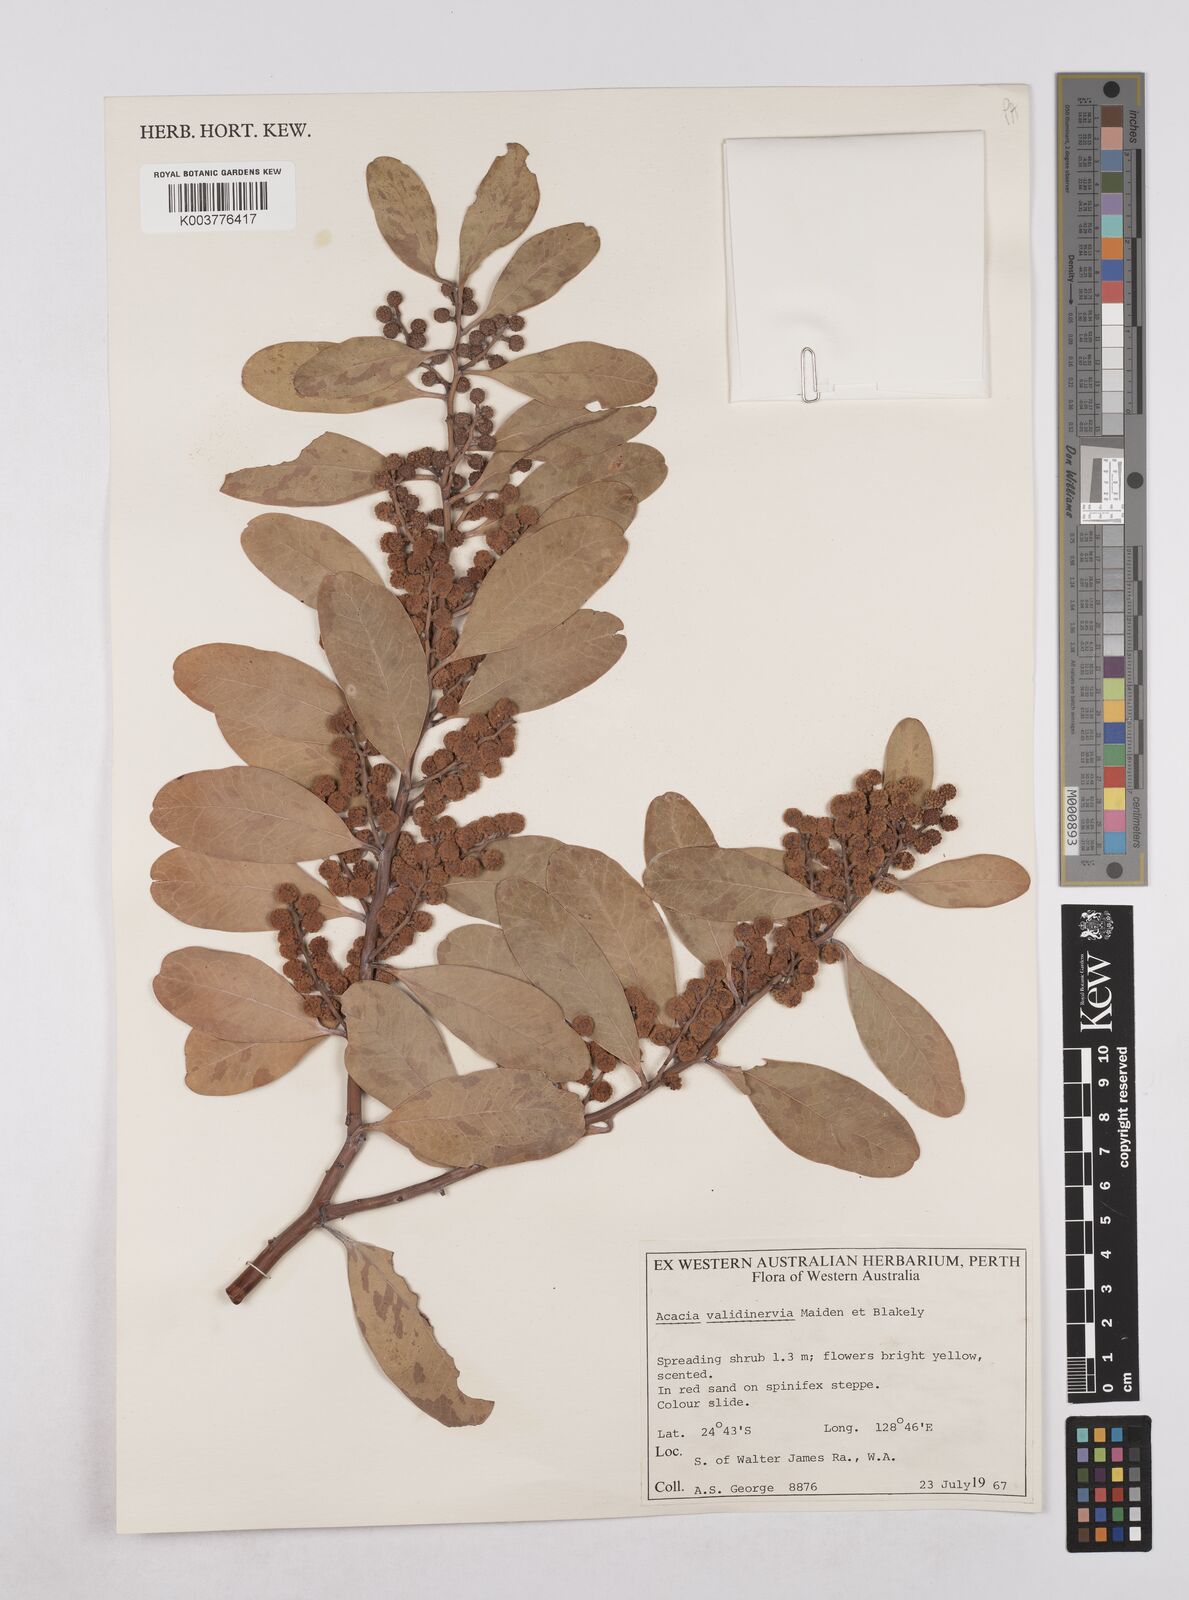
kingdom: Plantae
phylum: Tracheophyta
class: Magnoliopsida
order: Fabales
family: Fabaceae
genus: Acacia
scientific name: Acacia validinervia
